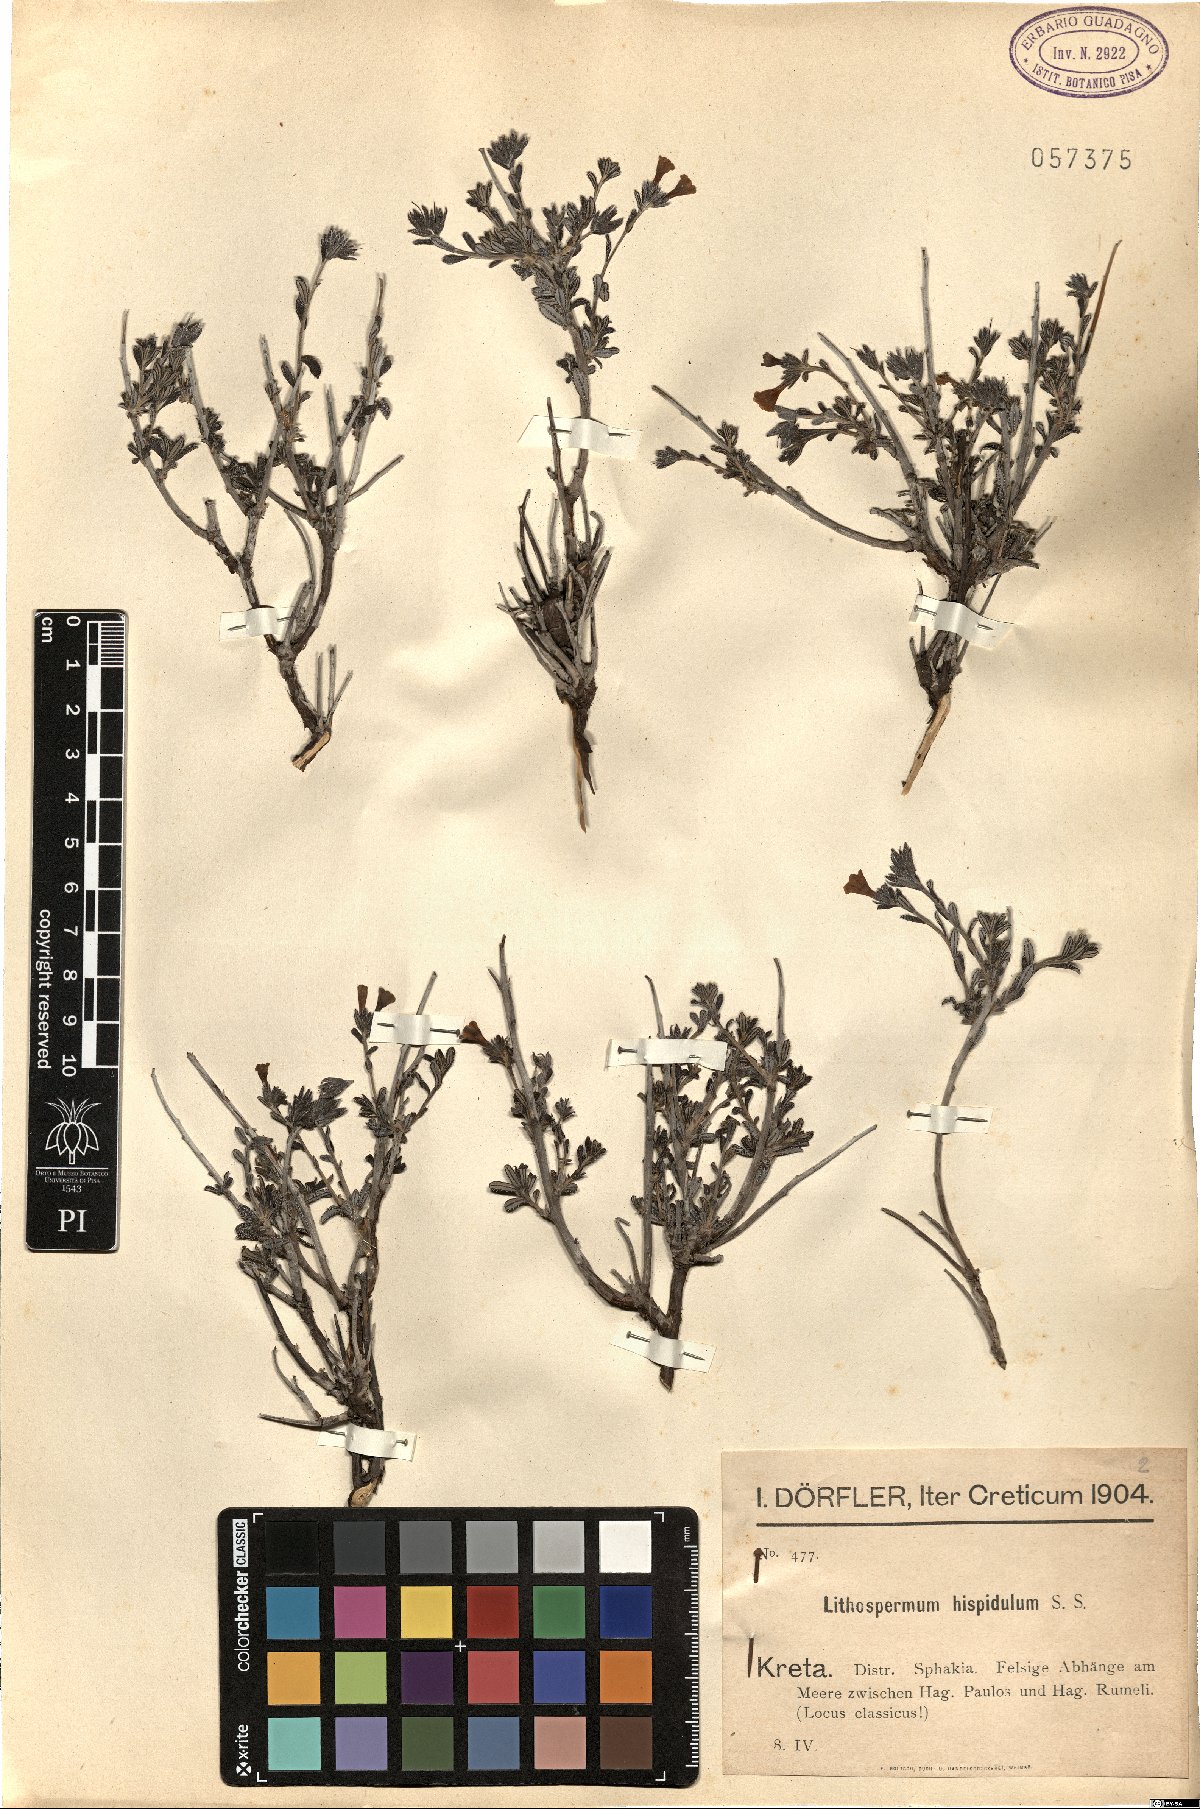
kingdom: Plantae
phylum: Tracheophyta
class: Magnoliopsida
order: Boraginales
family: Boraginaceae
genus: Lithodora
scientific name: Lithodora hispidula
